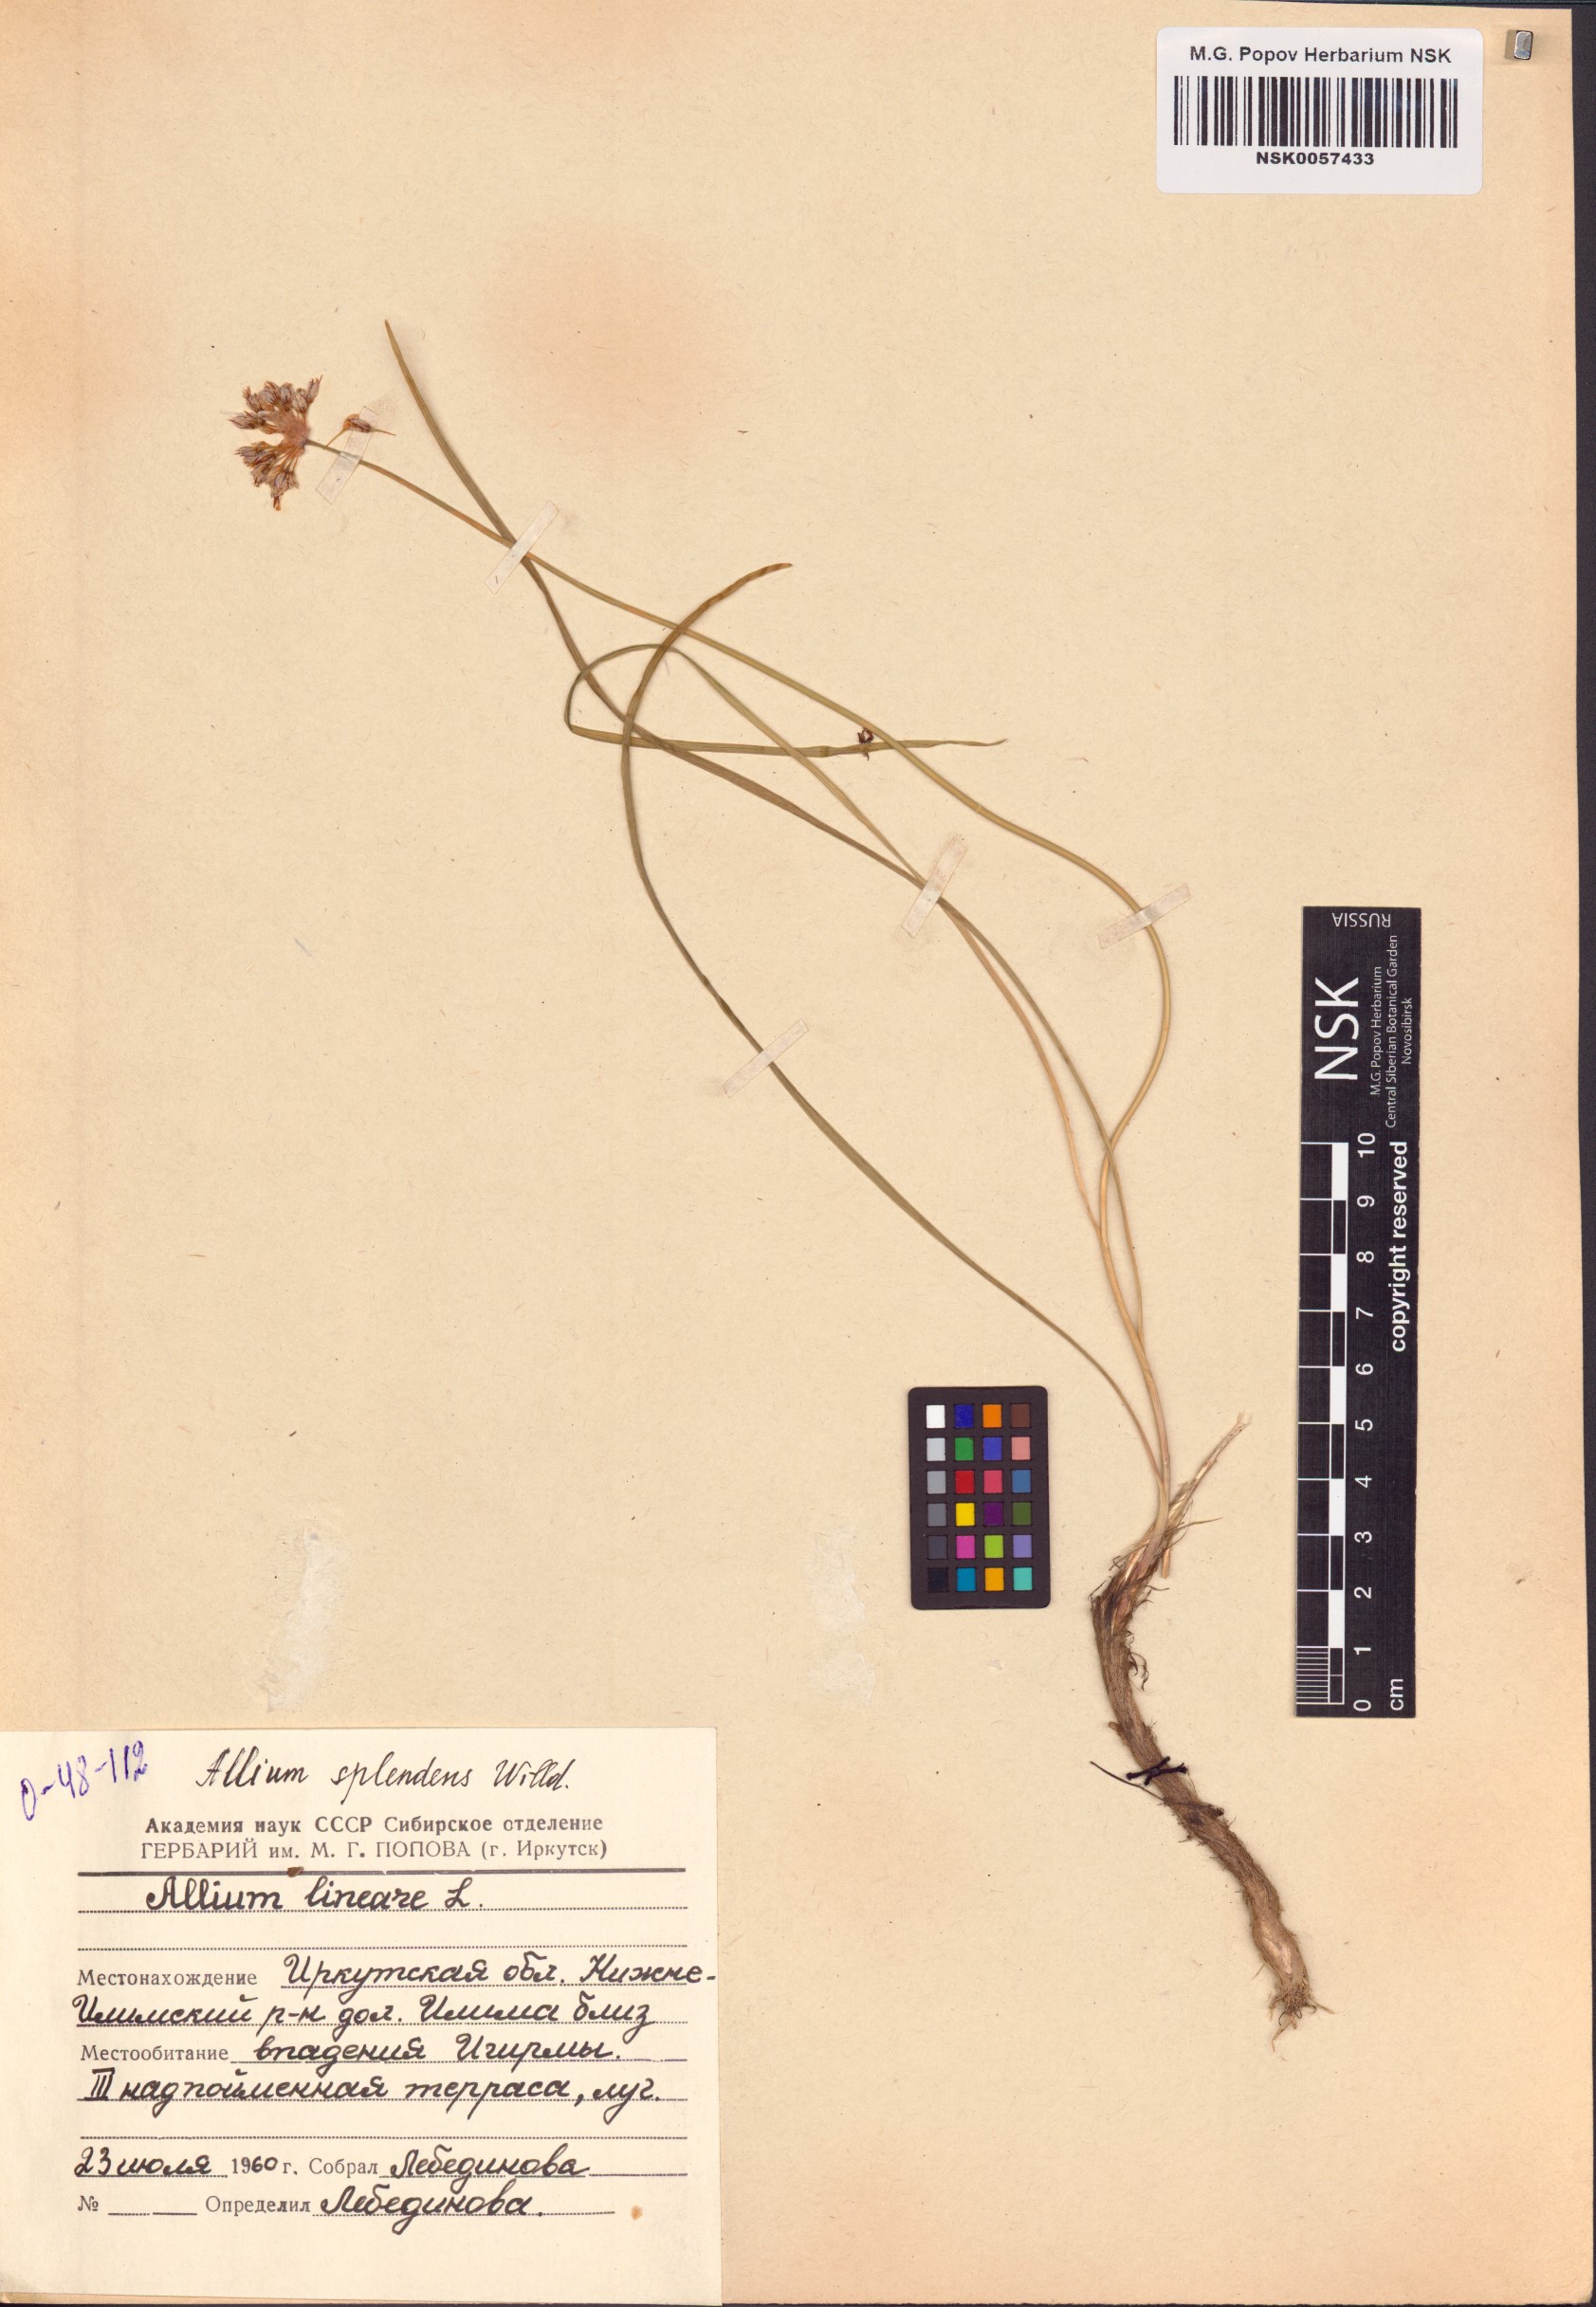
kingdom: Plantae
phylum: Tracheophyta
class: Liliopsida
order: Asparagales
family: Amaryllidaceae
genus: Allium
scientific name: Allium splendens
